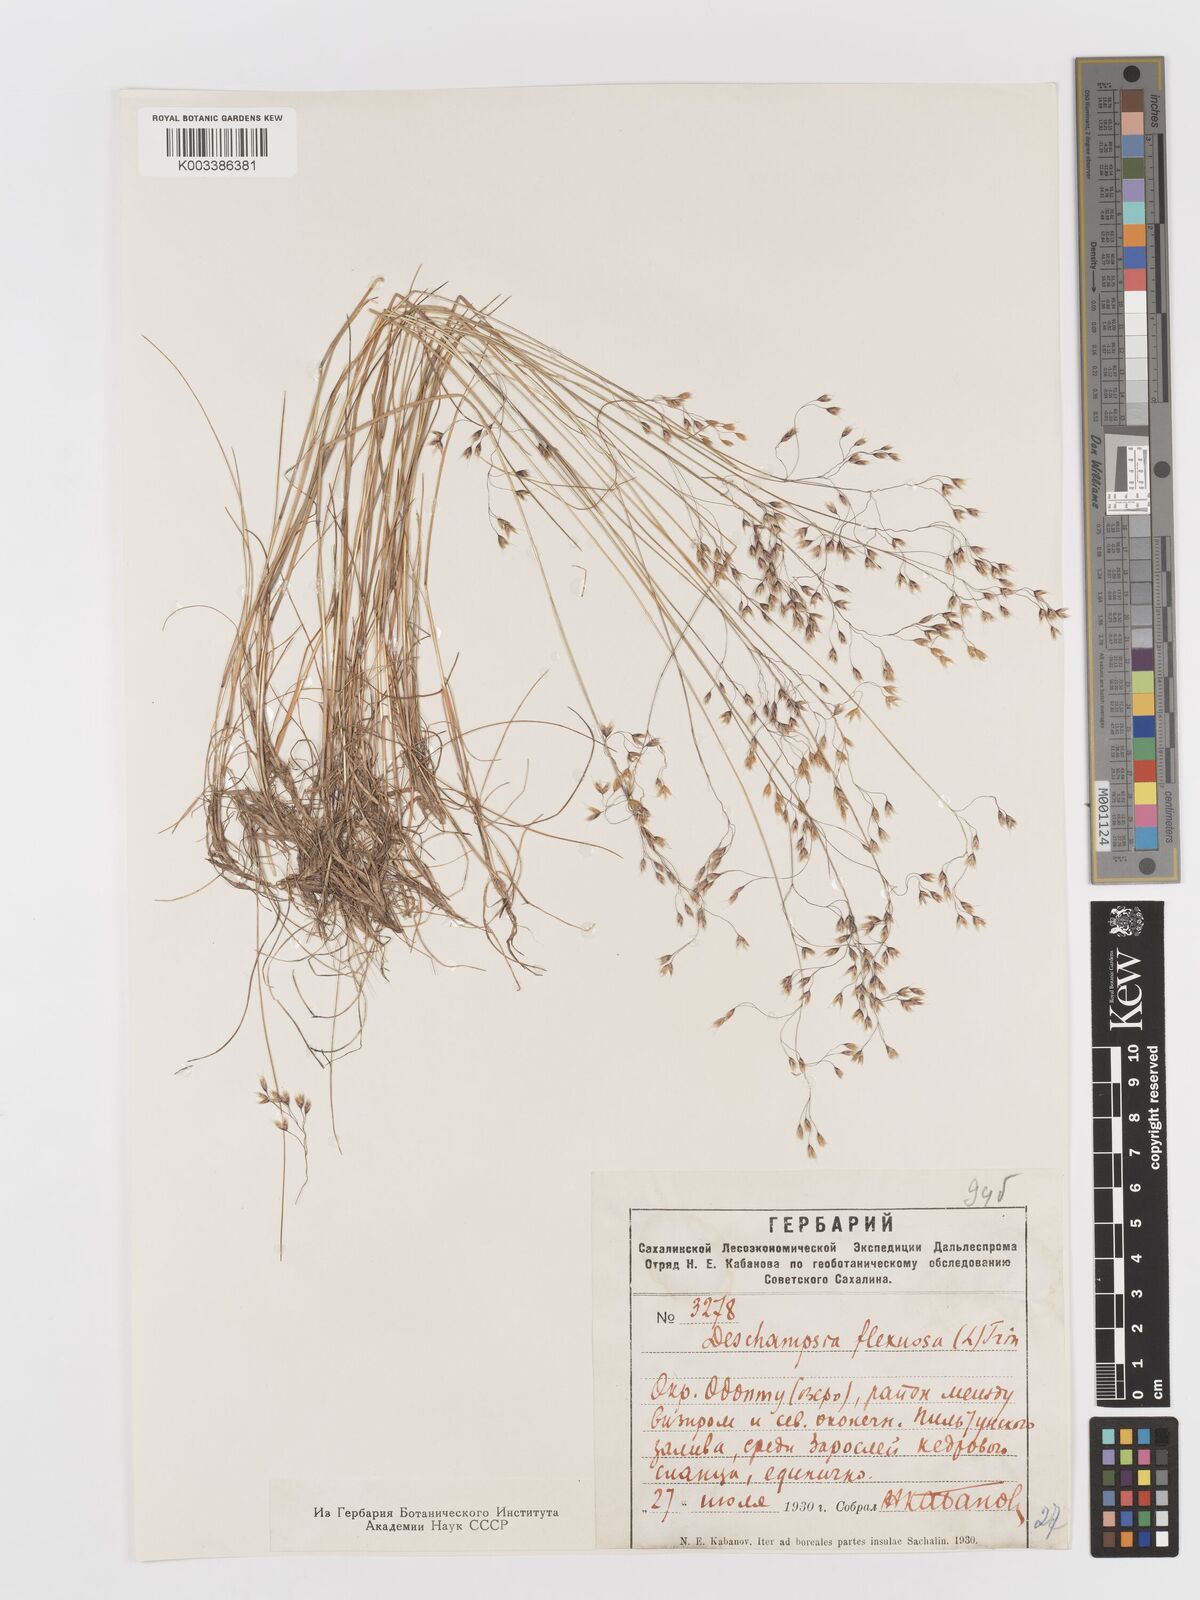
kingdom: Plantae
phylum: Tracheophyta
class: Liliopsida
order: Poales
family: Poaceae
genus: Avenella
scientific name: Avenella flexuosa
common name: Wavy hairgrass
